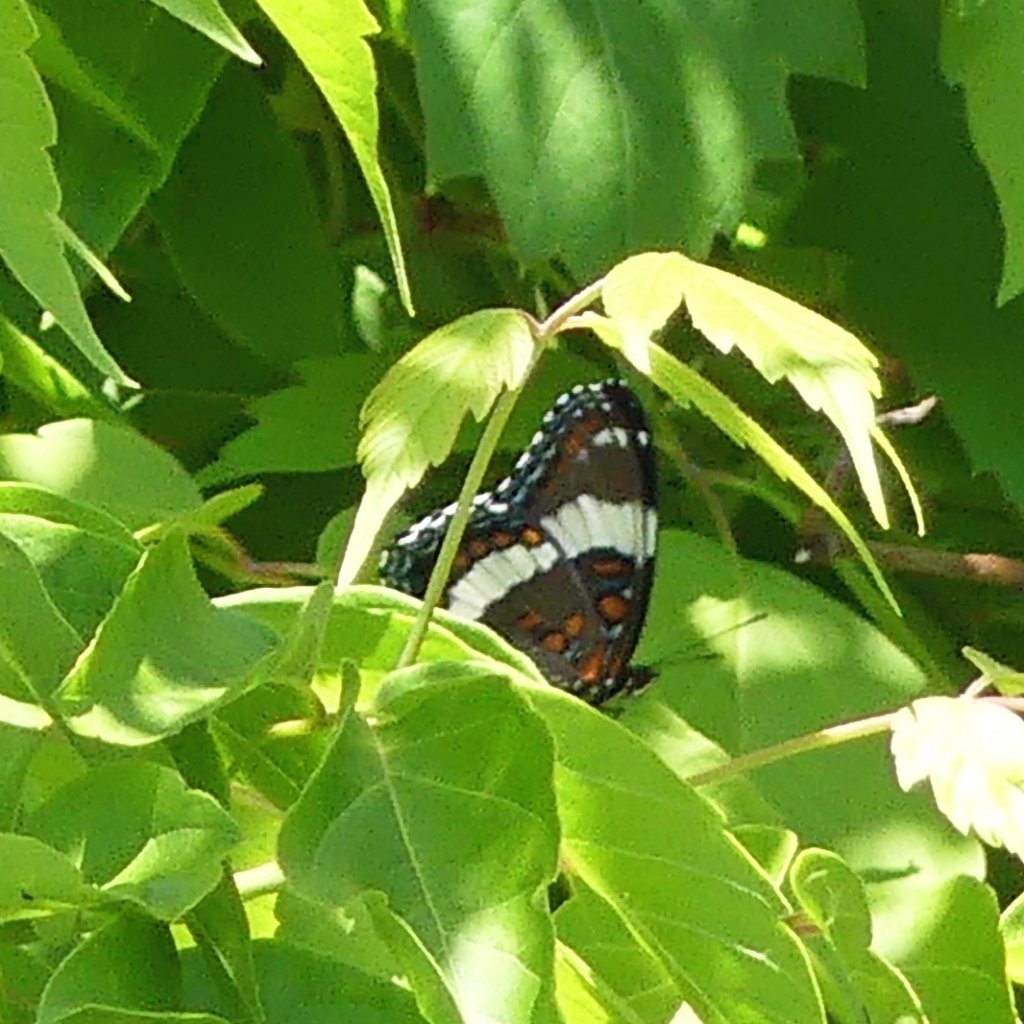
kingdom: Animalia
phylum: Arthropoda
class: Insecta
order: Lepidoptera
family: Nymphalidae
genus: Limenitis
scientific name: Limenitis arthemis
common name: Red-spotted Admiral
